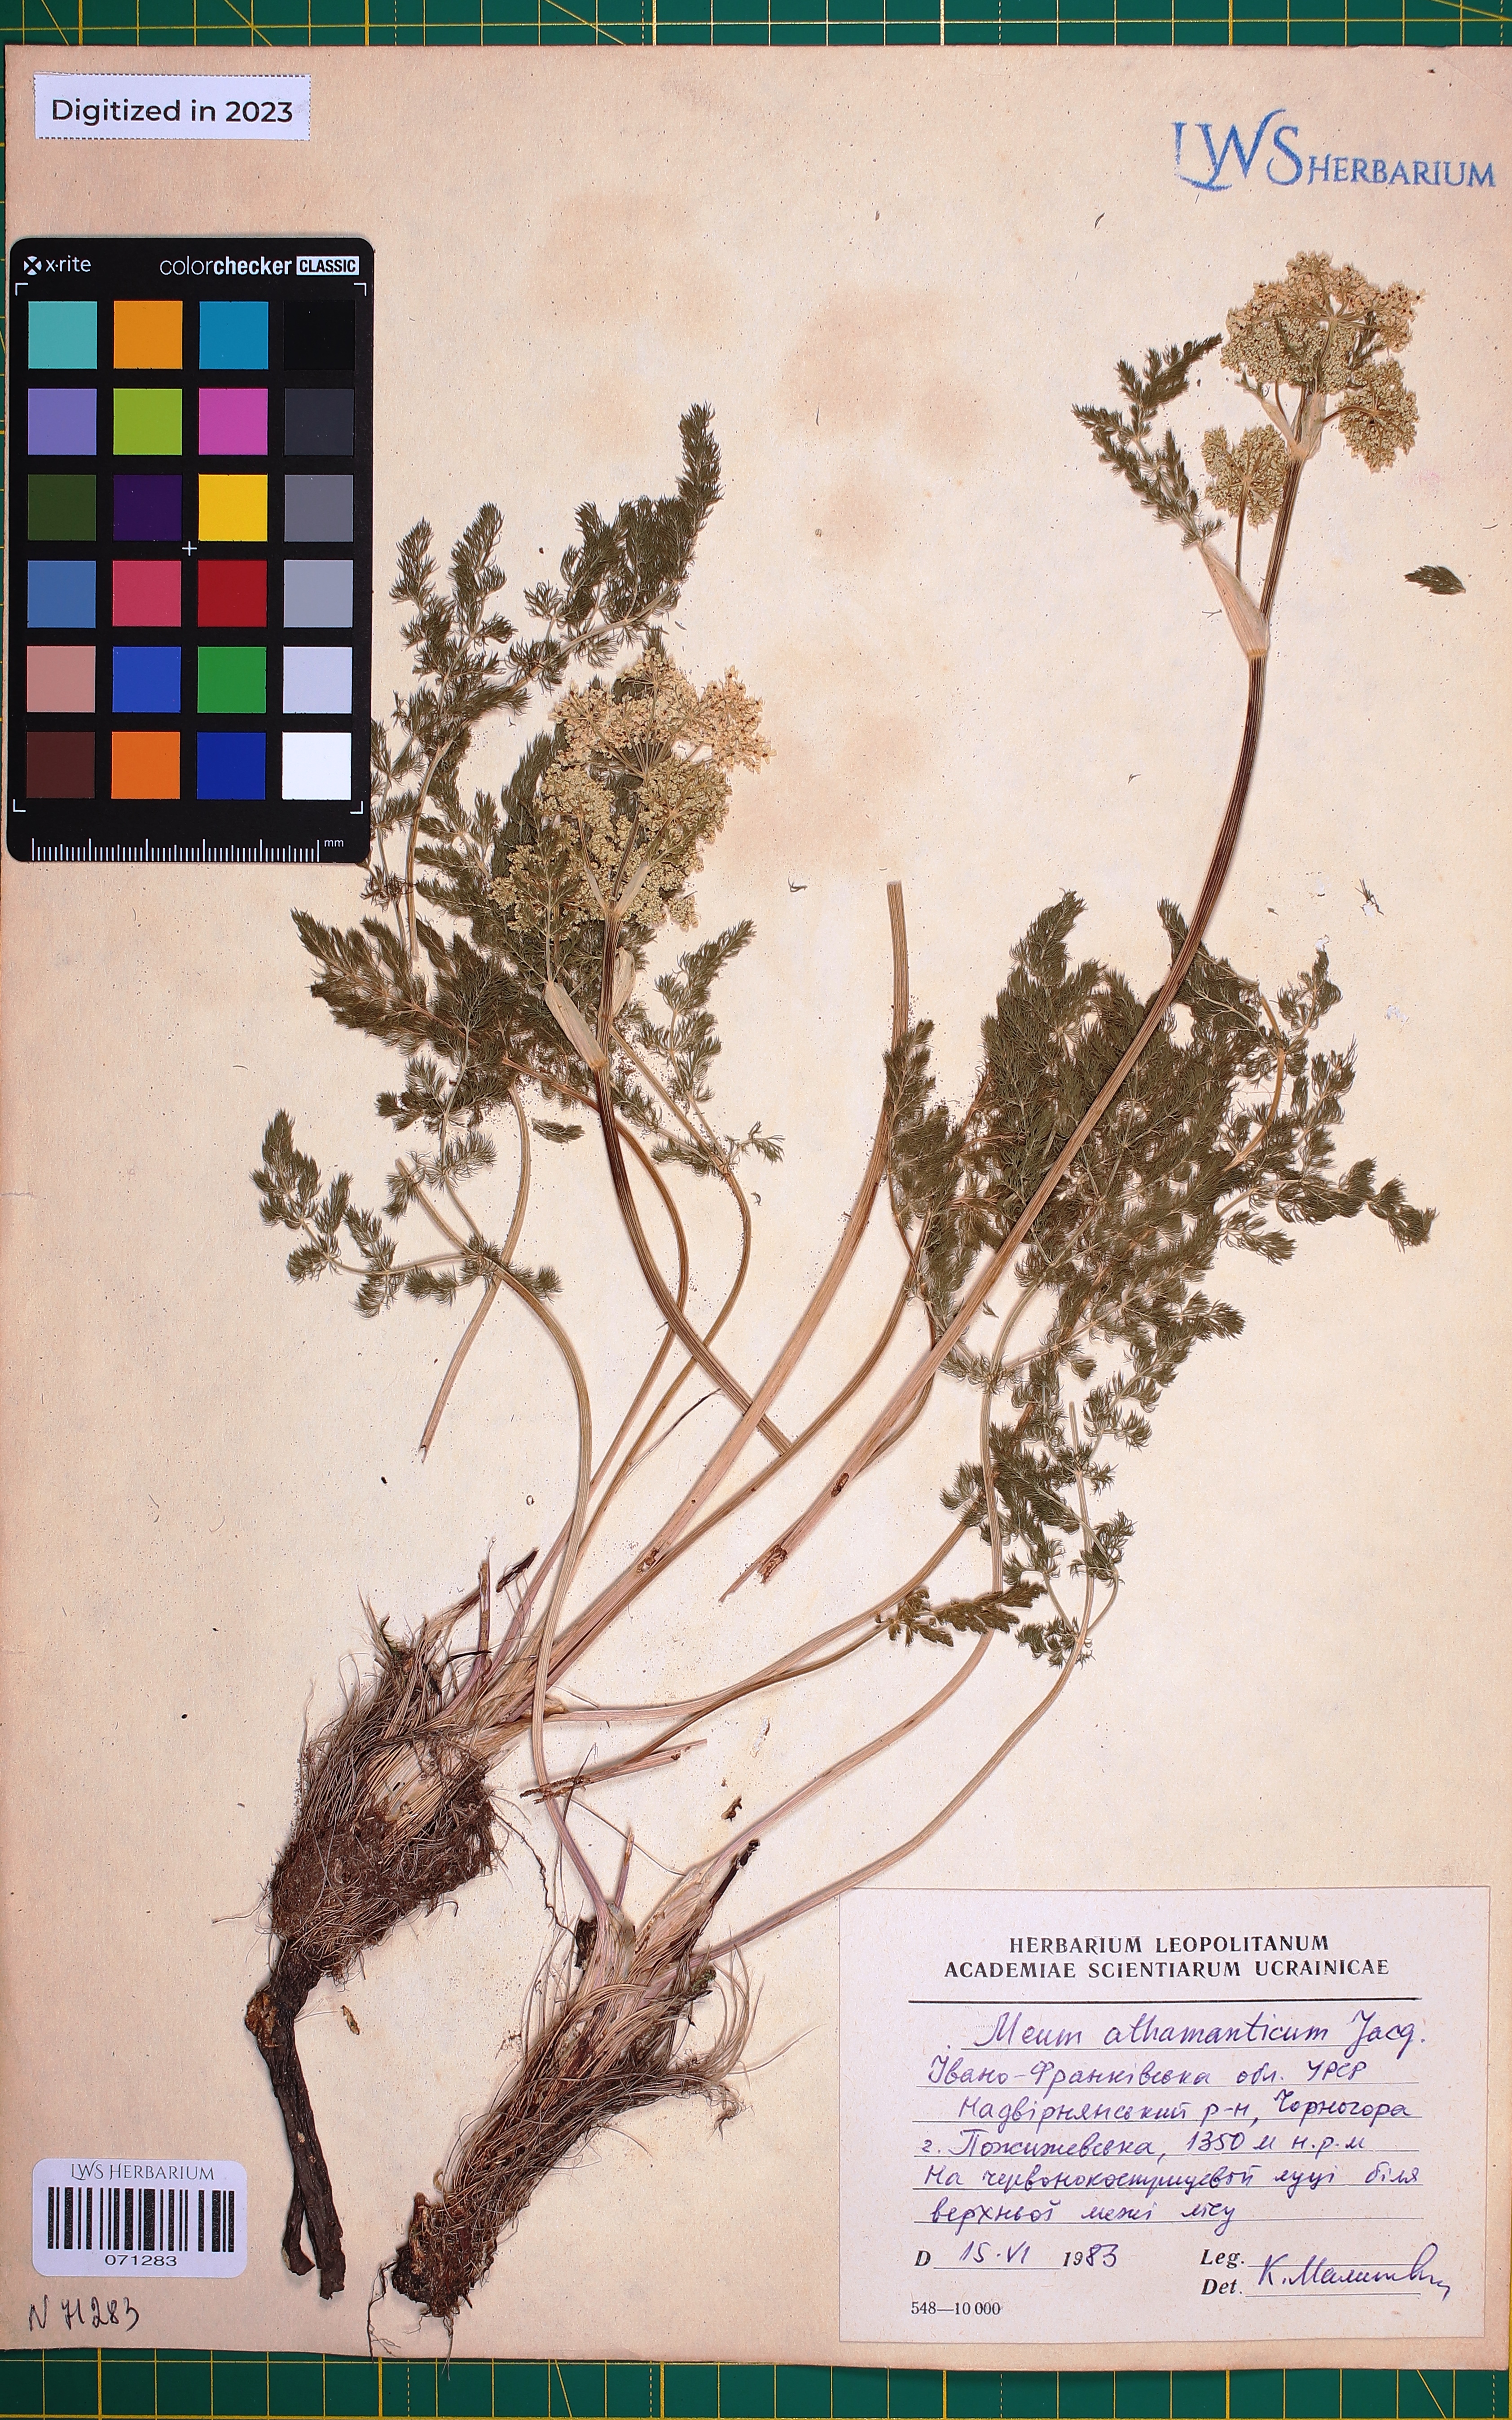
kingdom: Plantae
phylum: Tracheophyta
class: Magnoliopsida
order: Apiales
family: Apiaceae
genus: Meum
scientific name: Meum athamanticum
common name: Spignel
